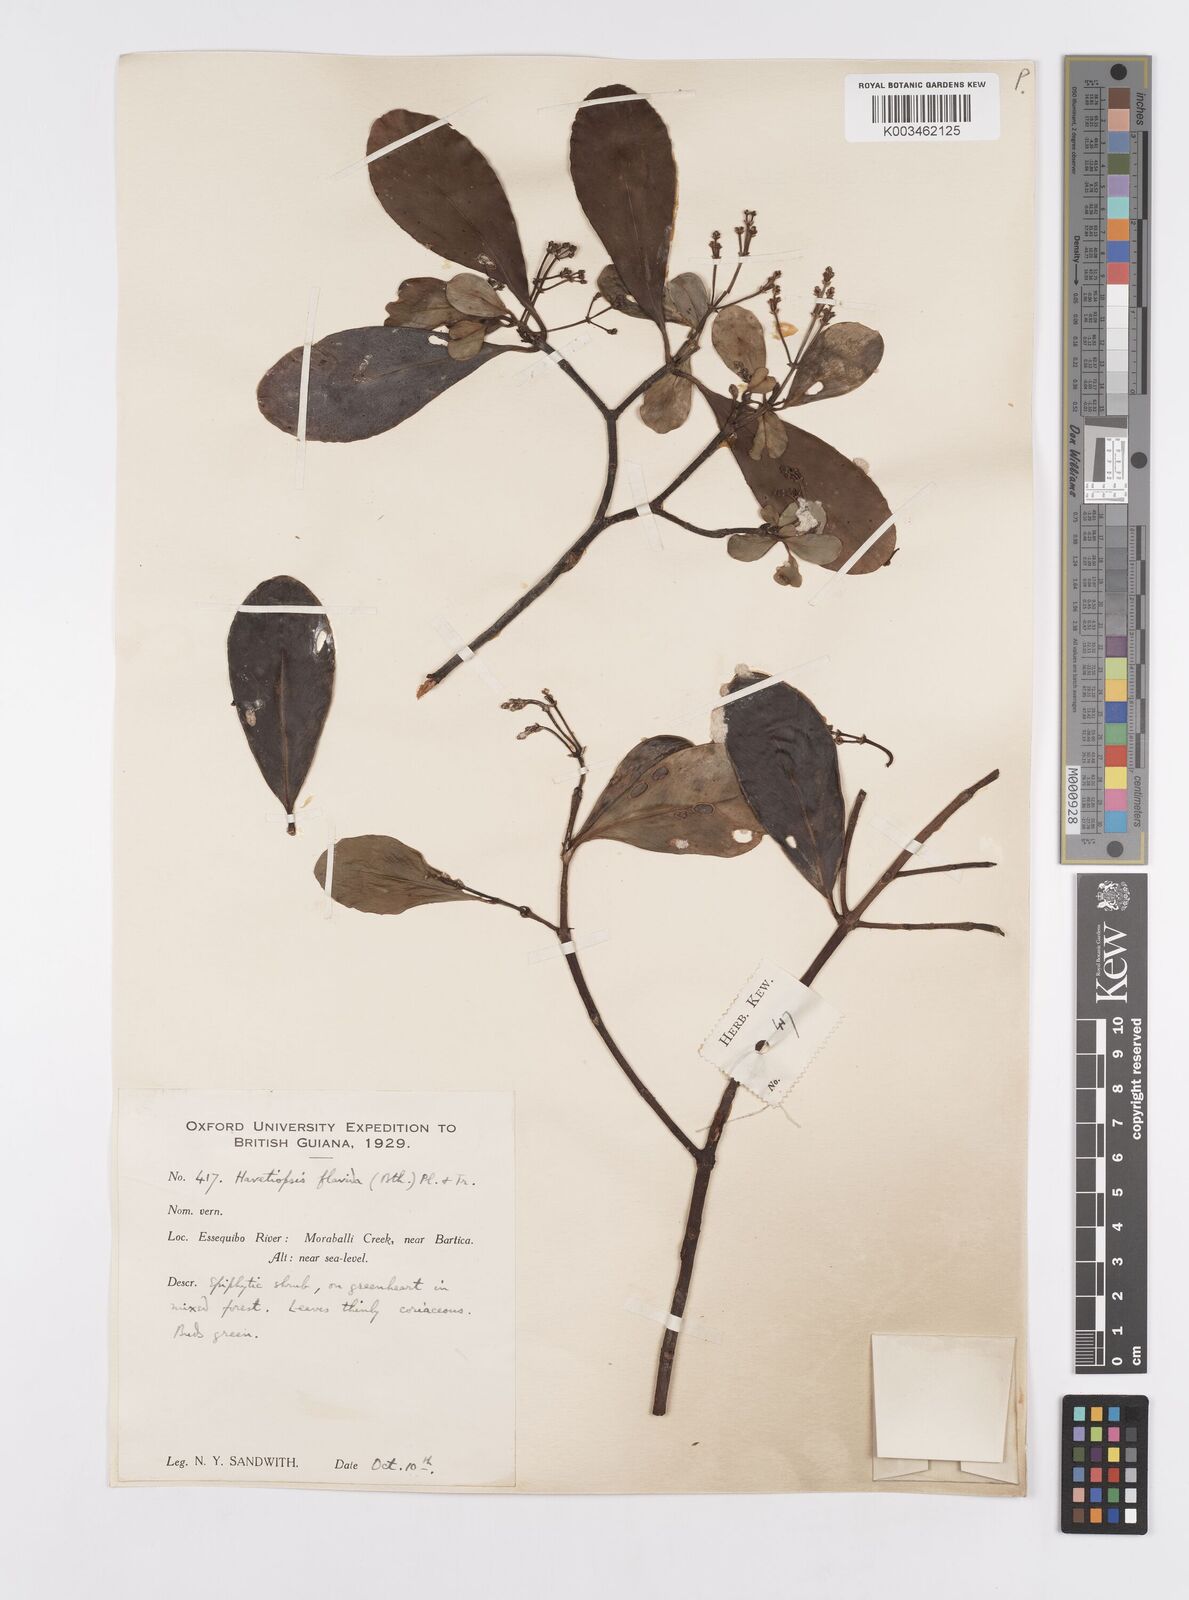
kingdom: Plantae
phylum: Tracheophyta
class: Magnoliopsida
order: Malpighiales
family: Clusiaceae
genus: Clusia
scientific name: Clusia flavida
